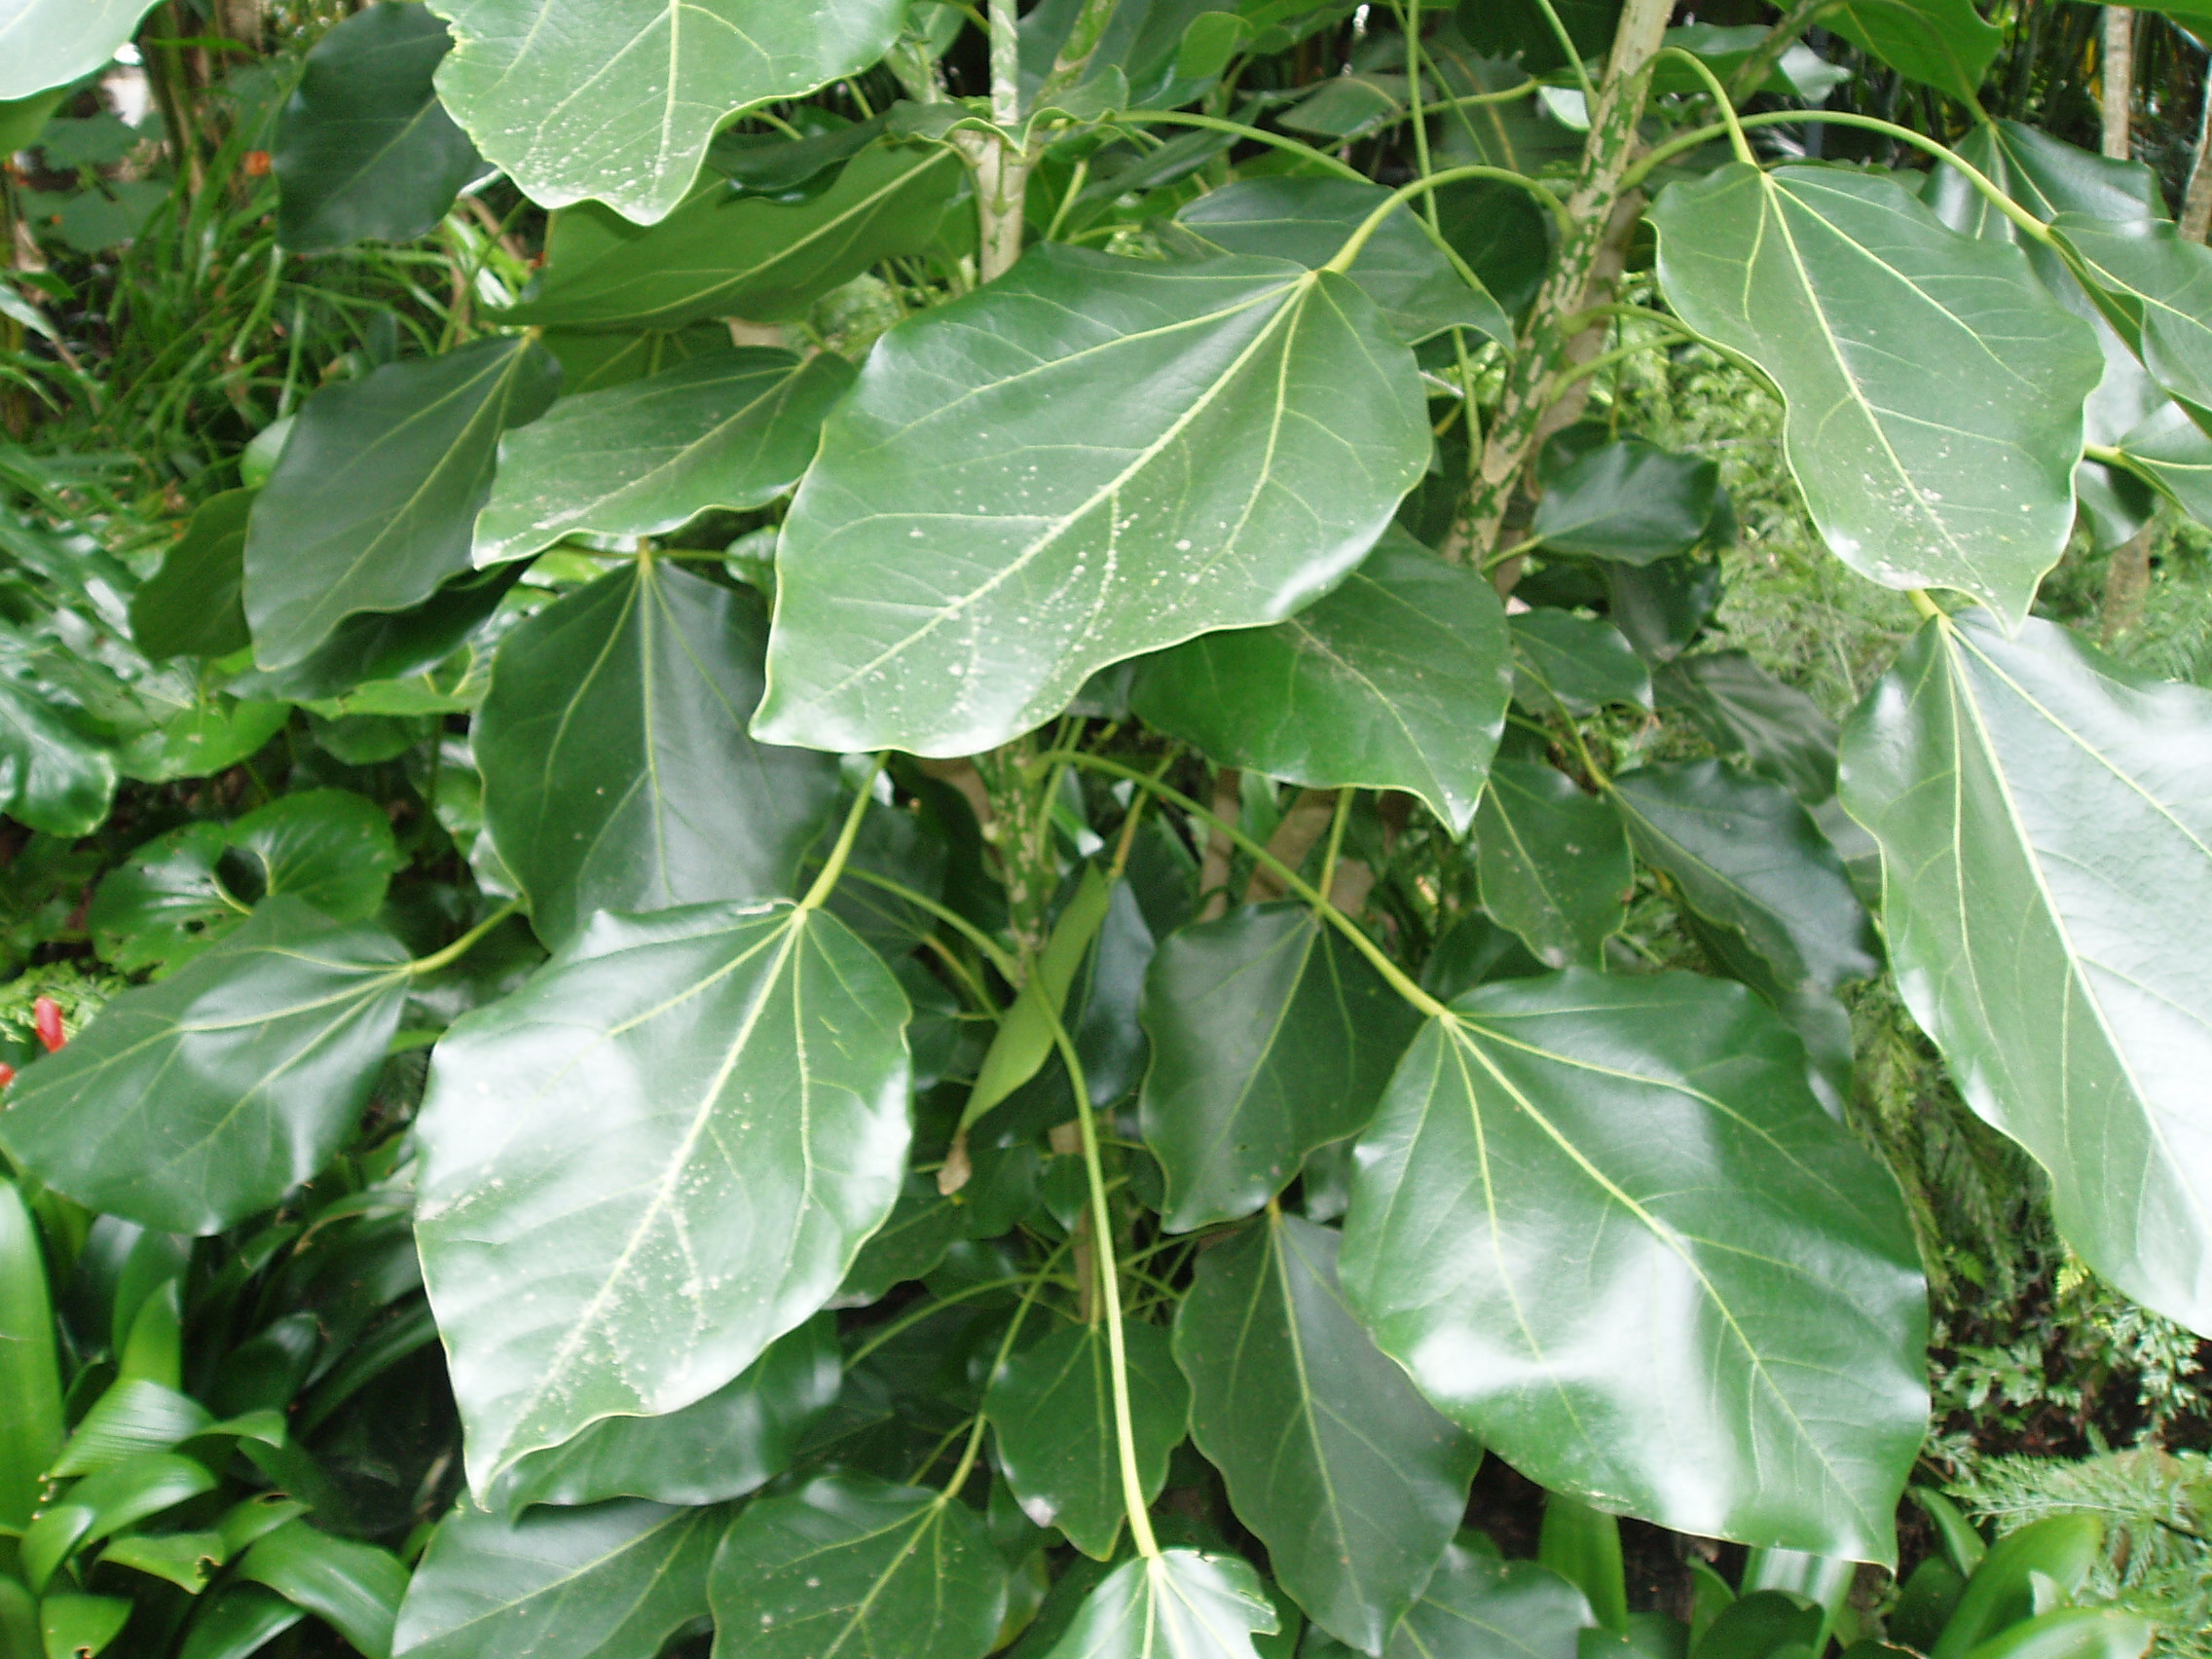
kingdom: Plantae
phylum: Tracheophyta
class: Magnoliopsida
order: Apiales
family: Araliaceae
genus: Oreopanax
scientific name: Oreopanax capitatus
